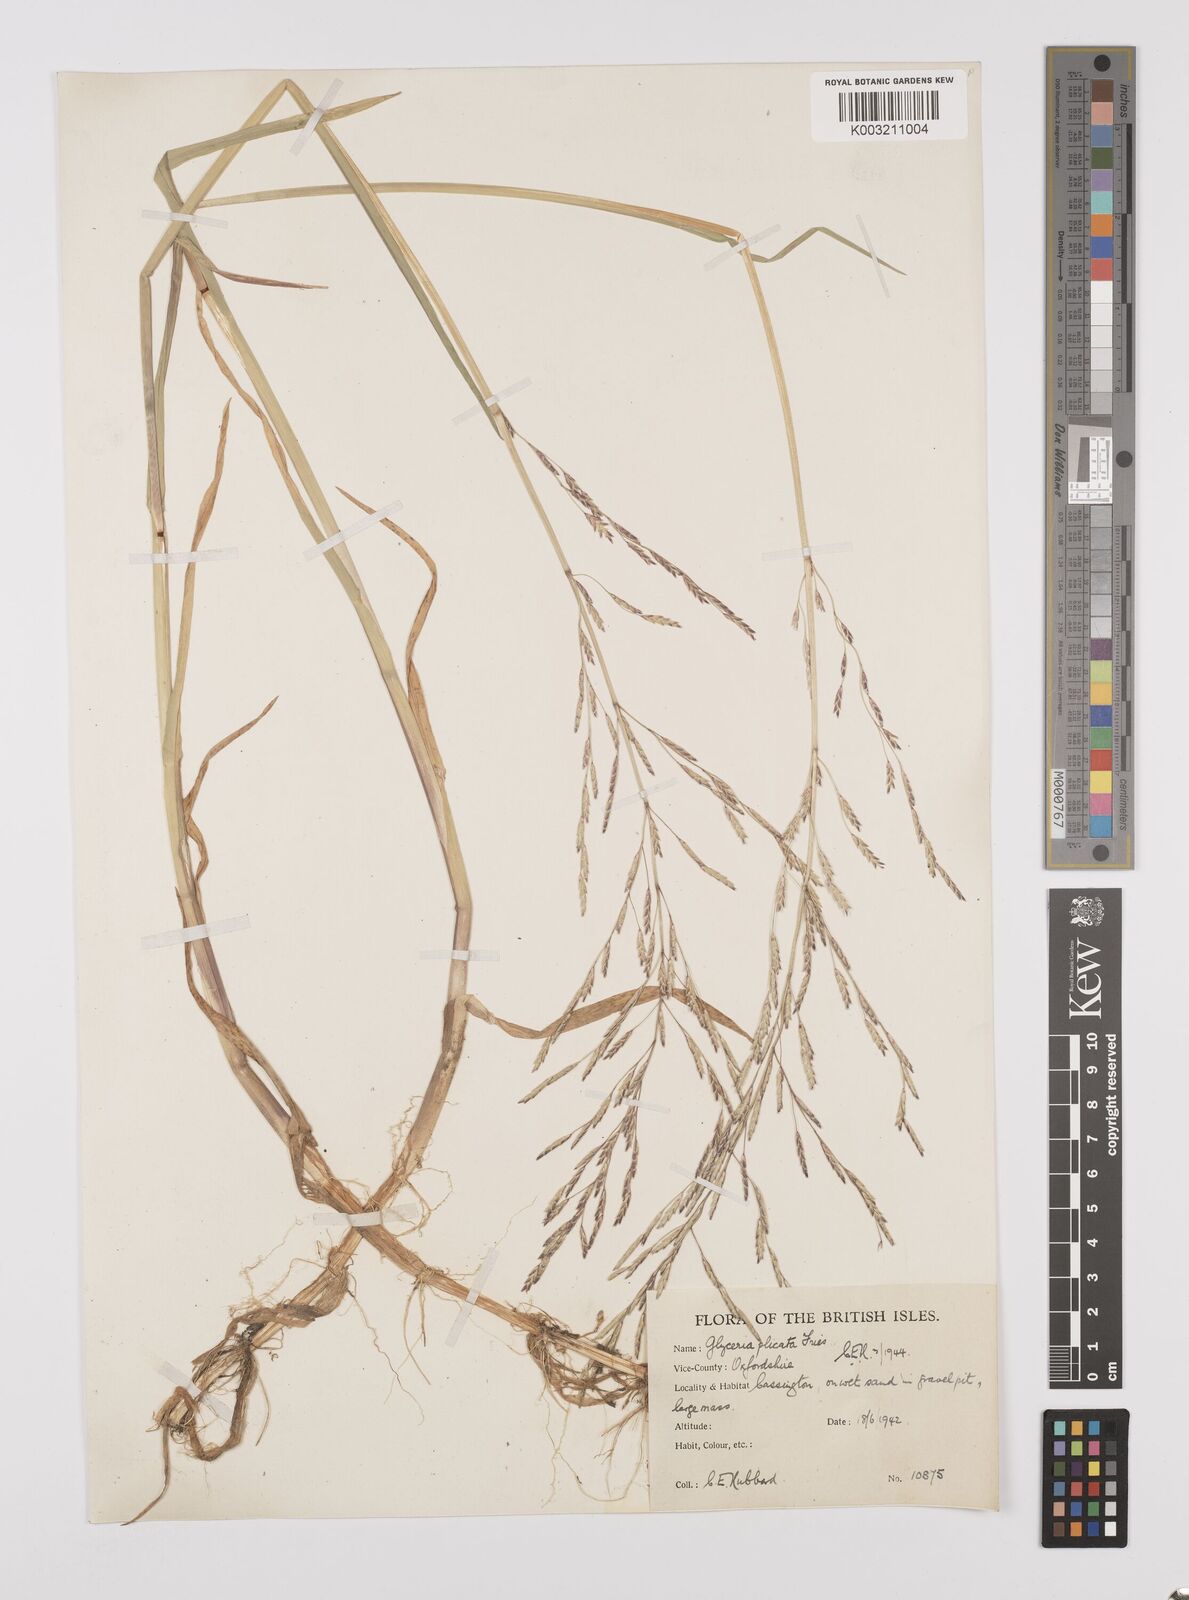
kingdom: Plantae
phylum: Tracheophyta
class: Liliopsida
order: Poales
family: Poaceae
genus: Glyceria
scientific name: Glyceria notata
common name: Plicate sweet-grass
